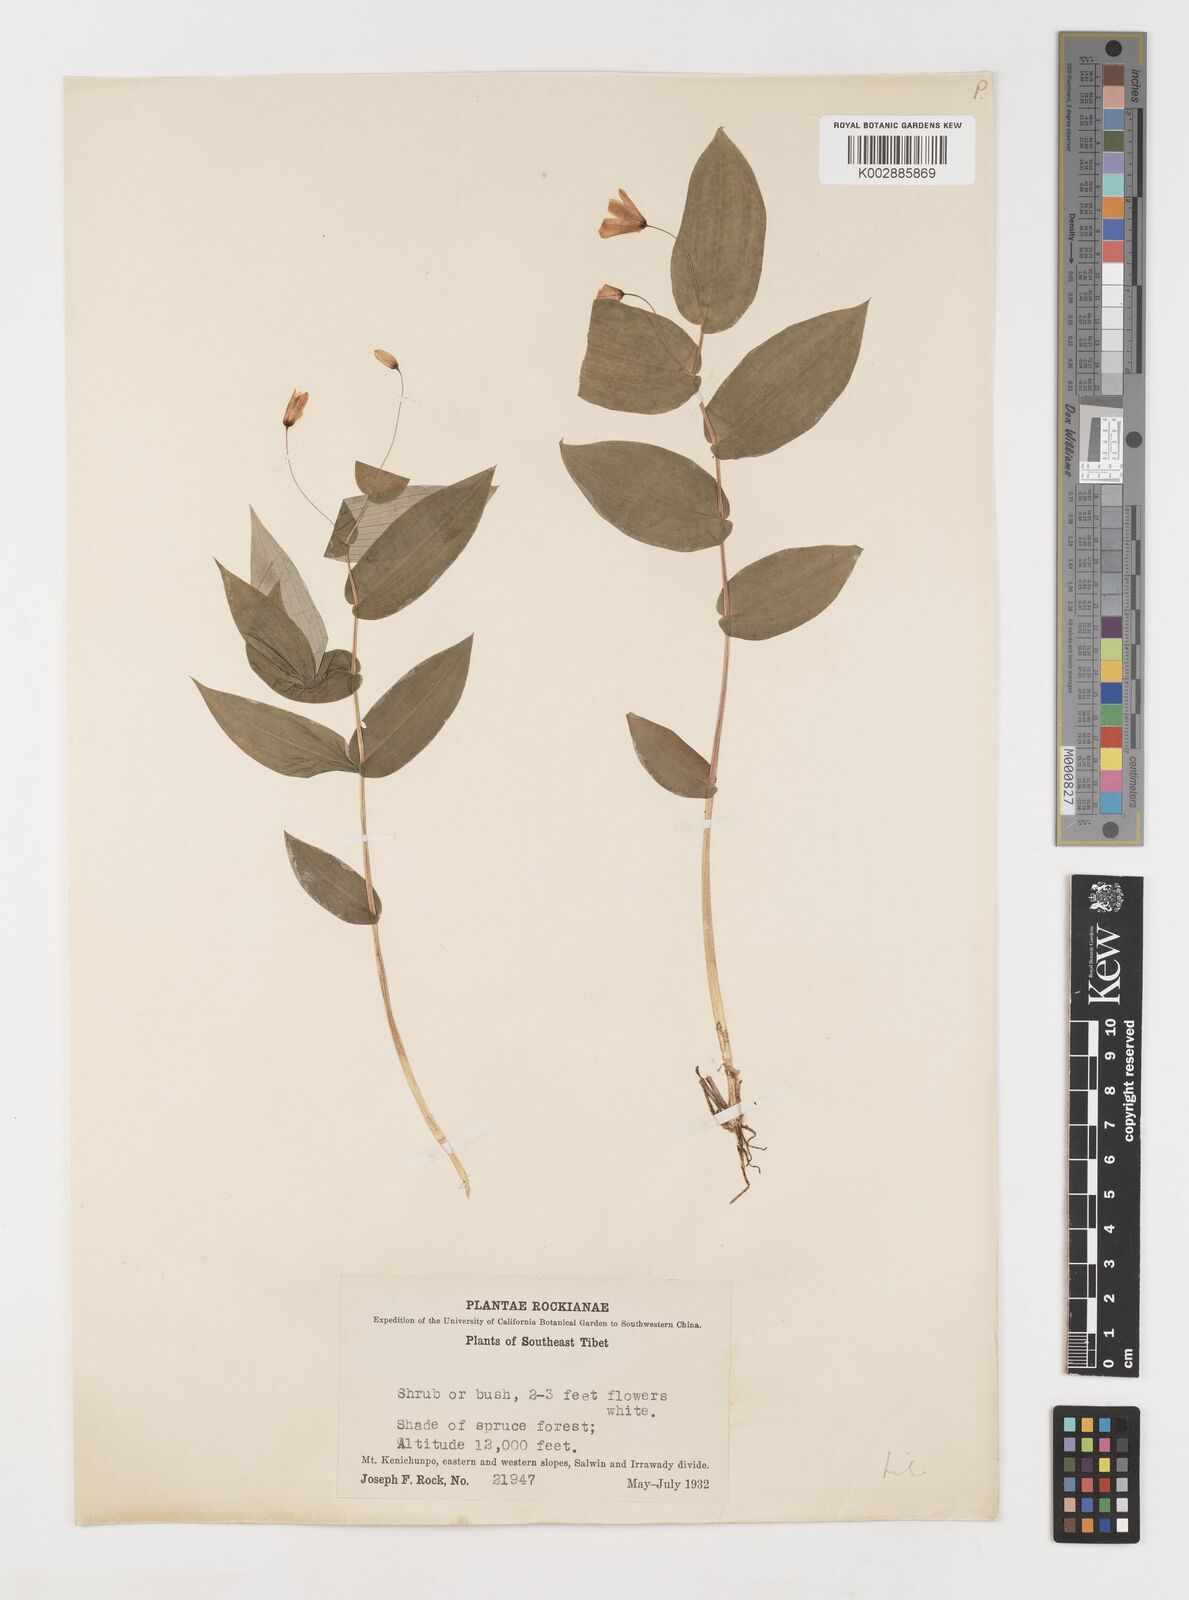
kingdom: Plantae
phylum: Tracheophyta
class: Liliopsida
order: Liliales
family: Liliaceae
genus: Streptopus
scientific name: Streptopus simplex
